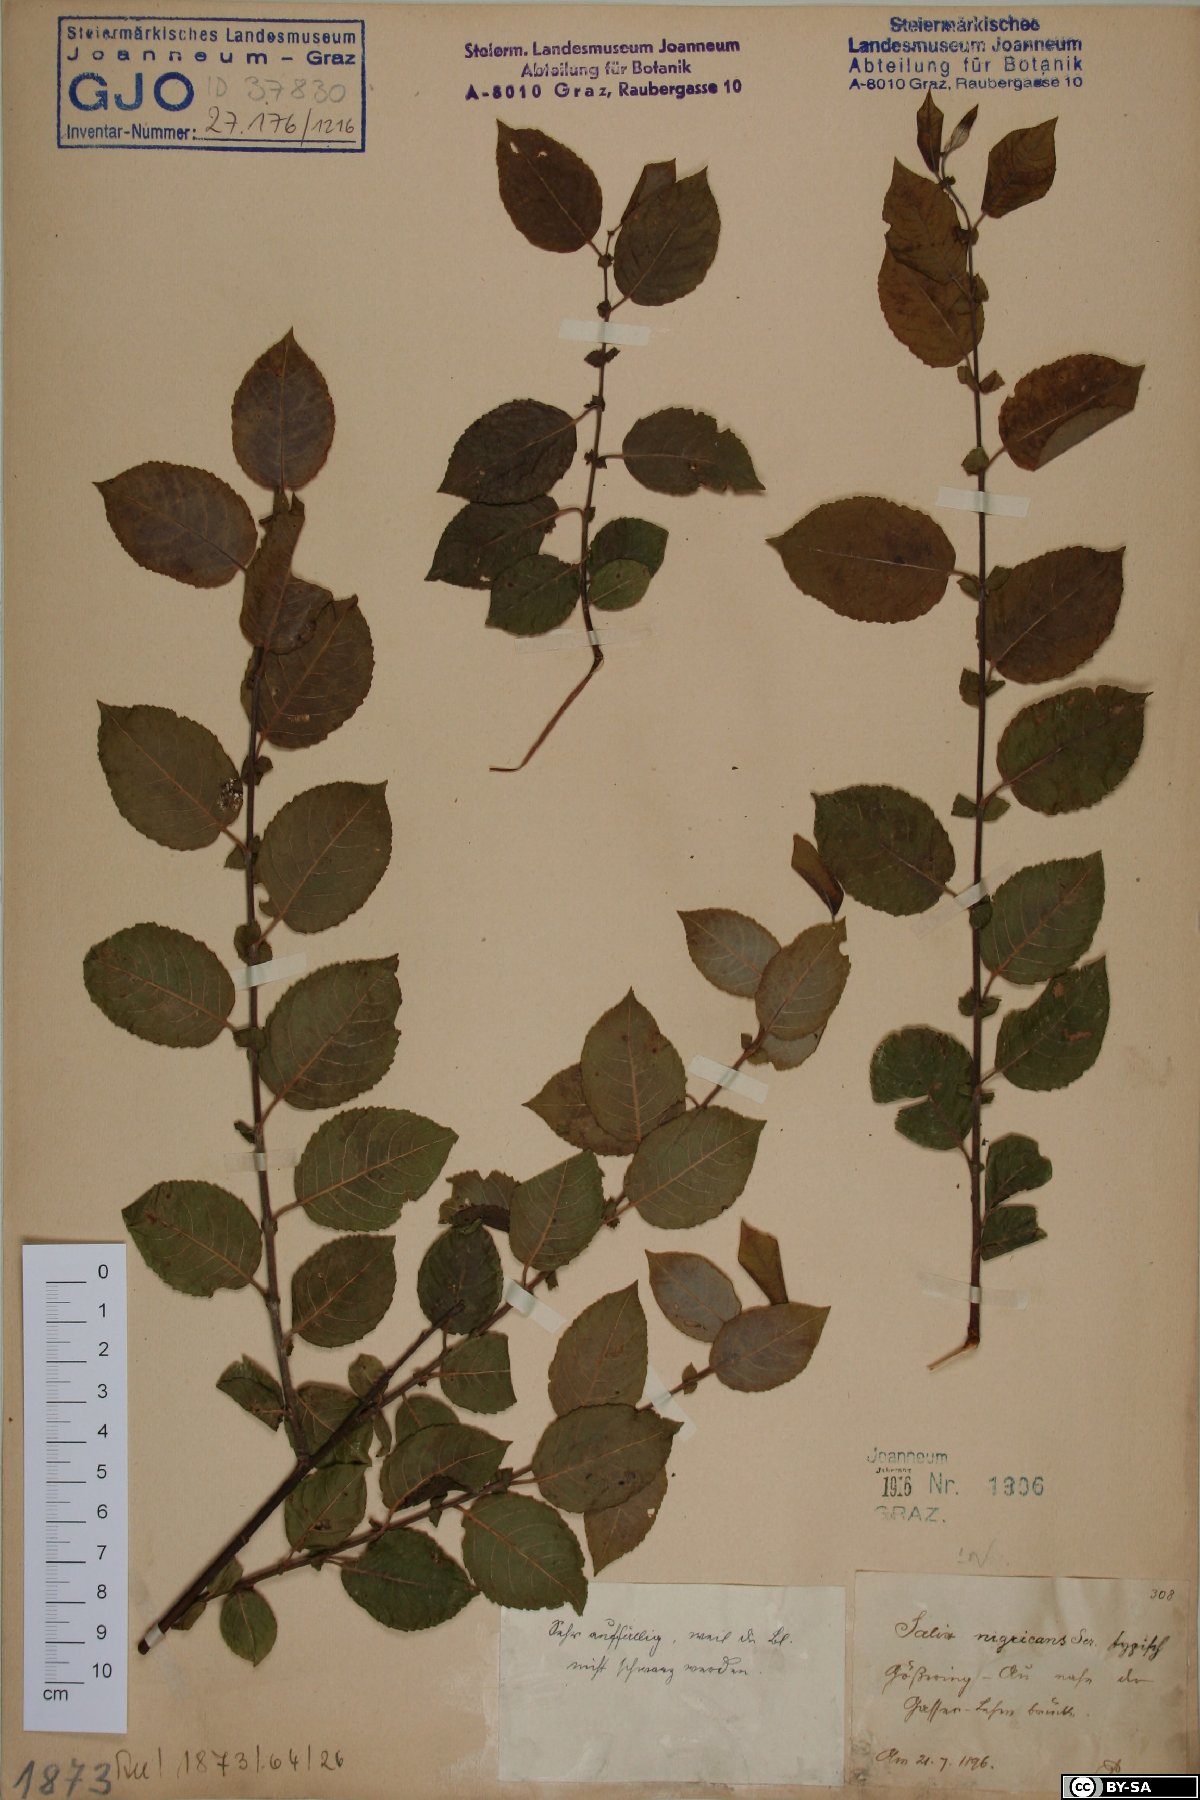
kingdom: Plantae
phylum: Tracheophyta
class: Magnoliopsida
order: Malpighiales
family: Salicaceae
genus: Salix
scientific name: Salix myrsinifolia
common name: Dark-leaved willow
